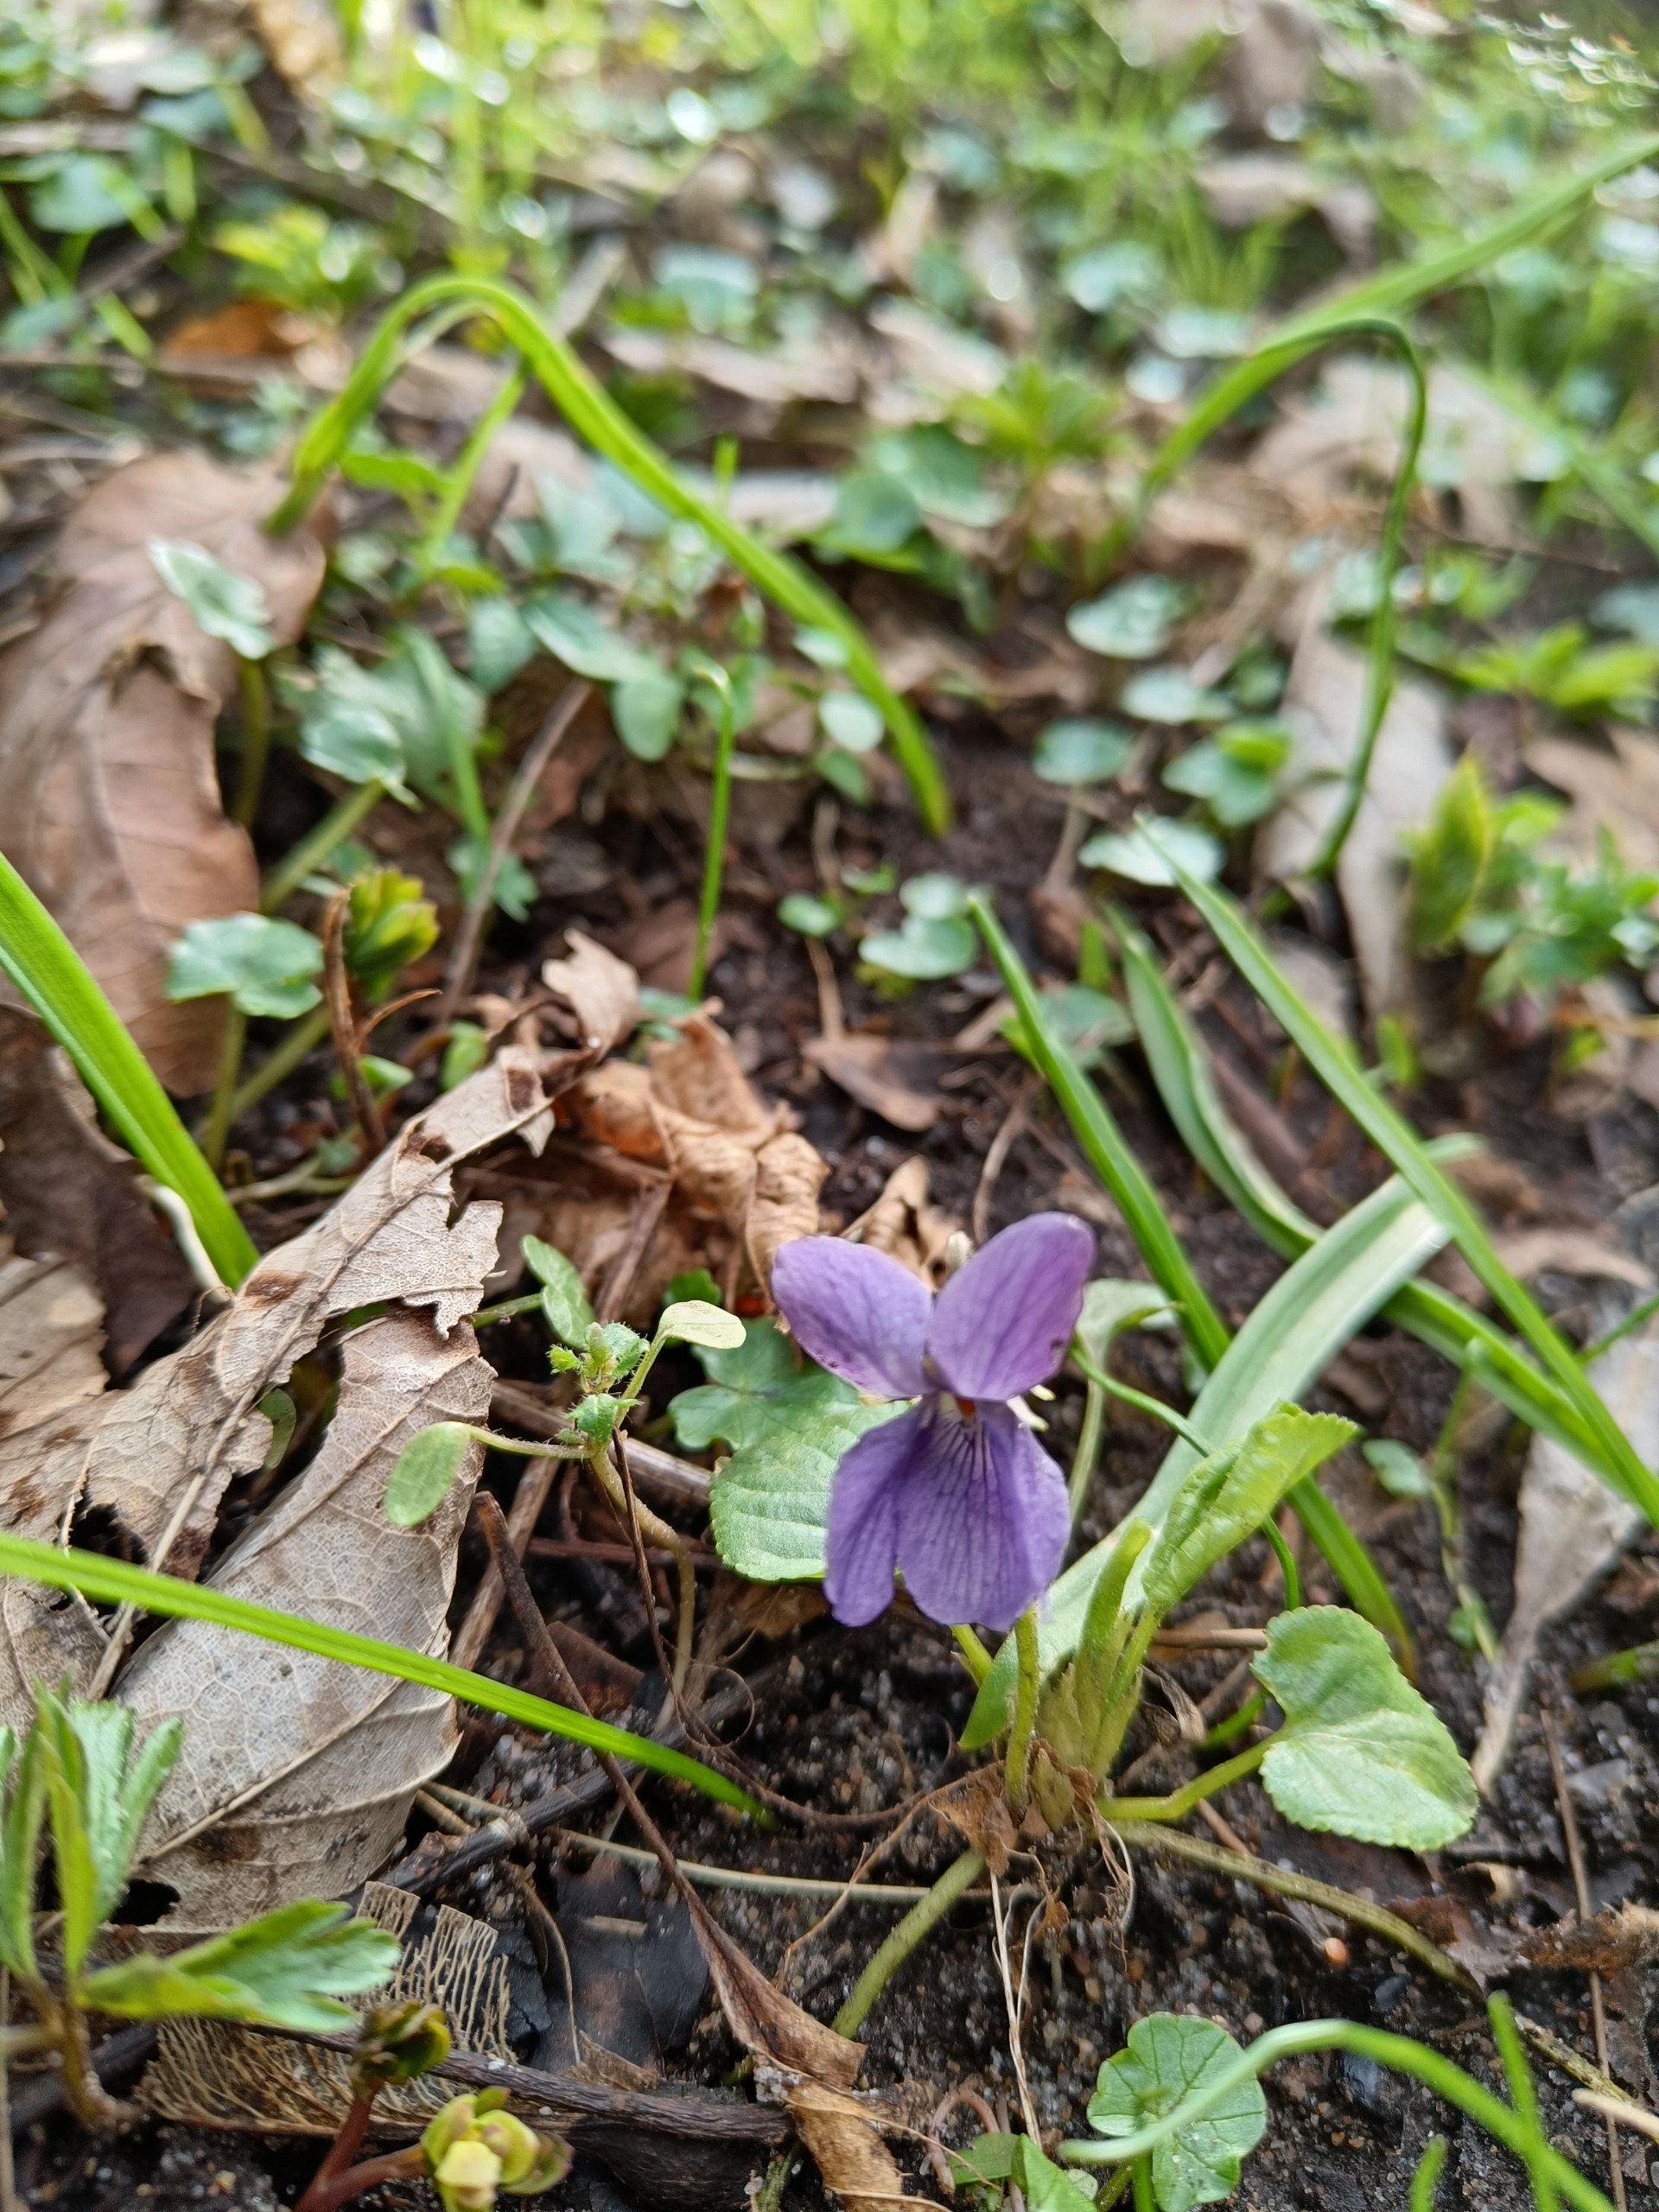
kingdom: Plantae
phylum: Tracheophyta
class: Magnoliopsida
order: Malpighiales
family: Violaceae
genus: Viola
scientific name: Viola odorata
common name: Marts-viol
